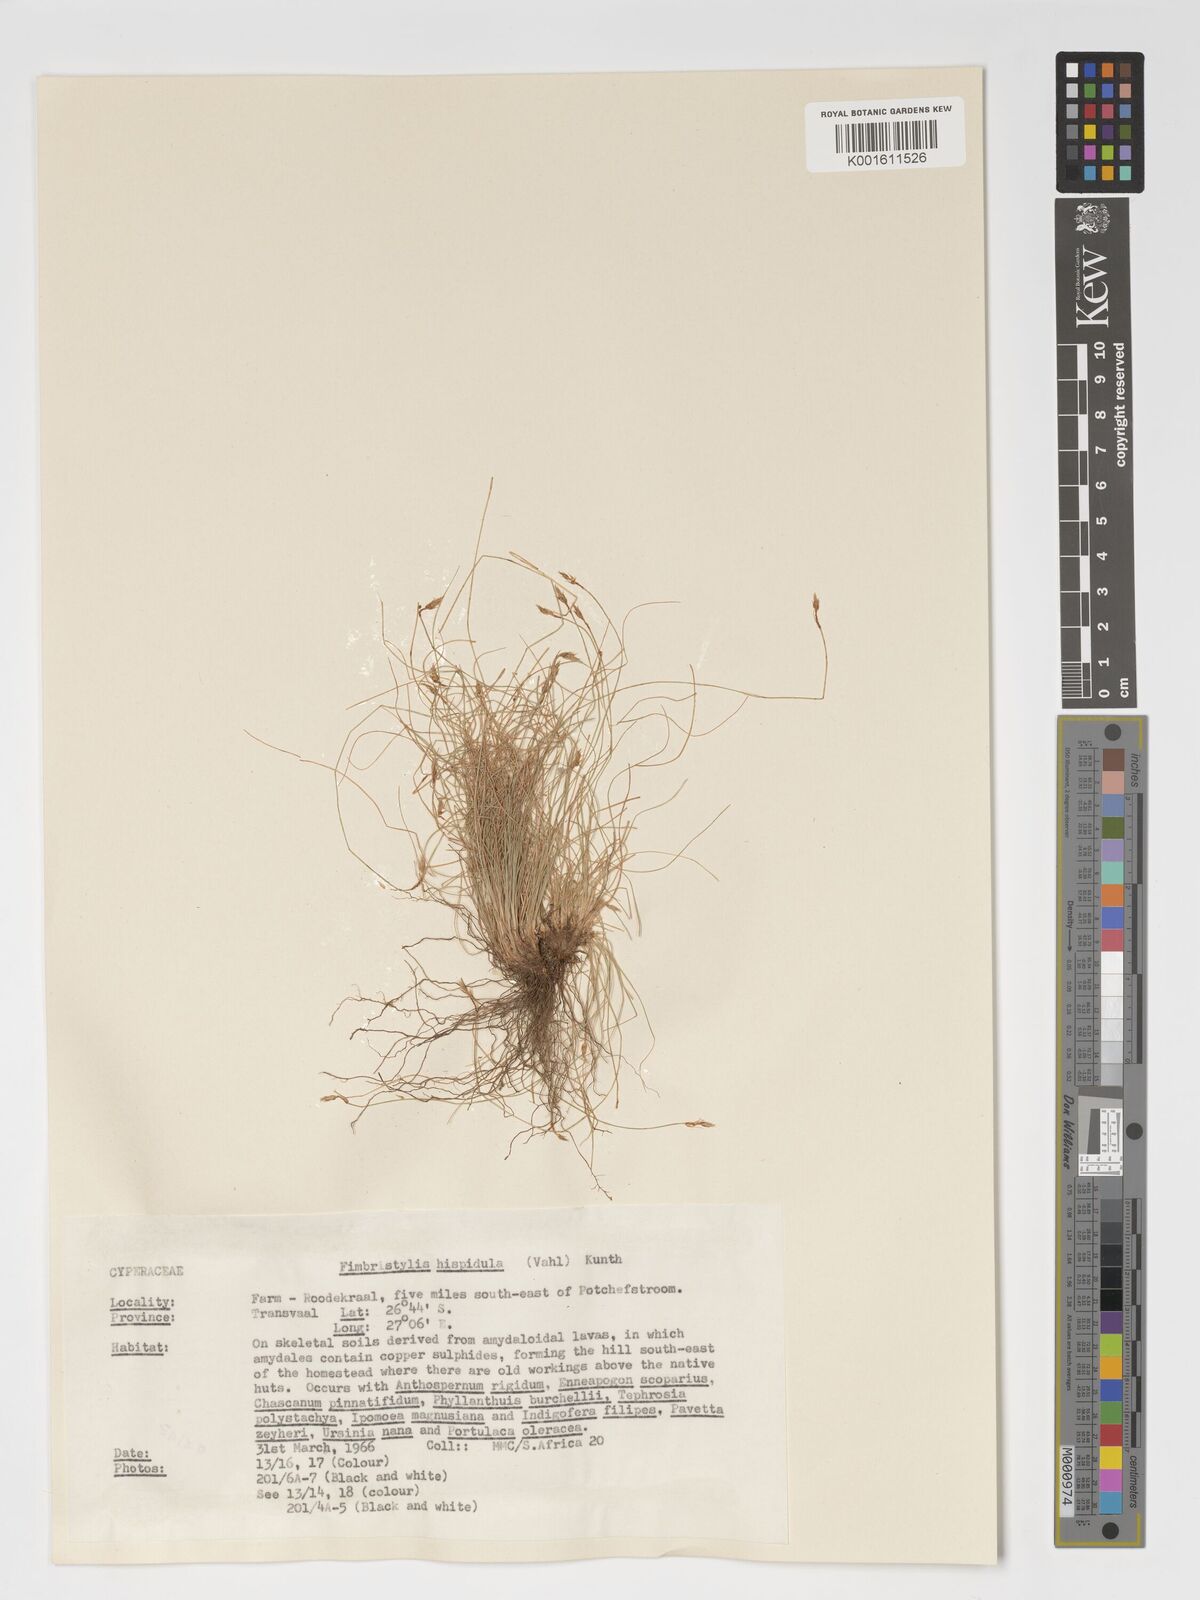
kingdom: Plantae
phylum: Tracheophyta
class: Liliopsida
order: Poales
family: Cyperaceae
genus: Bulbostylis
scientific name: Bulbostylis hispidula
